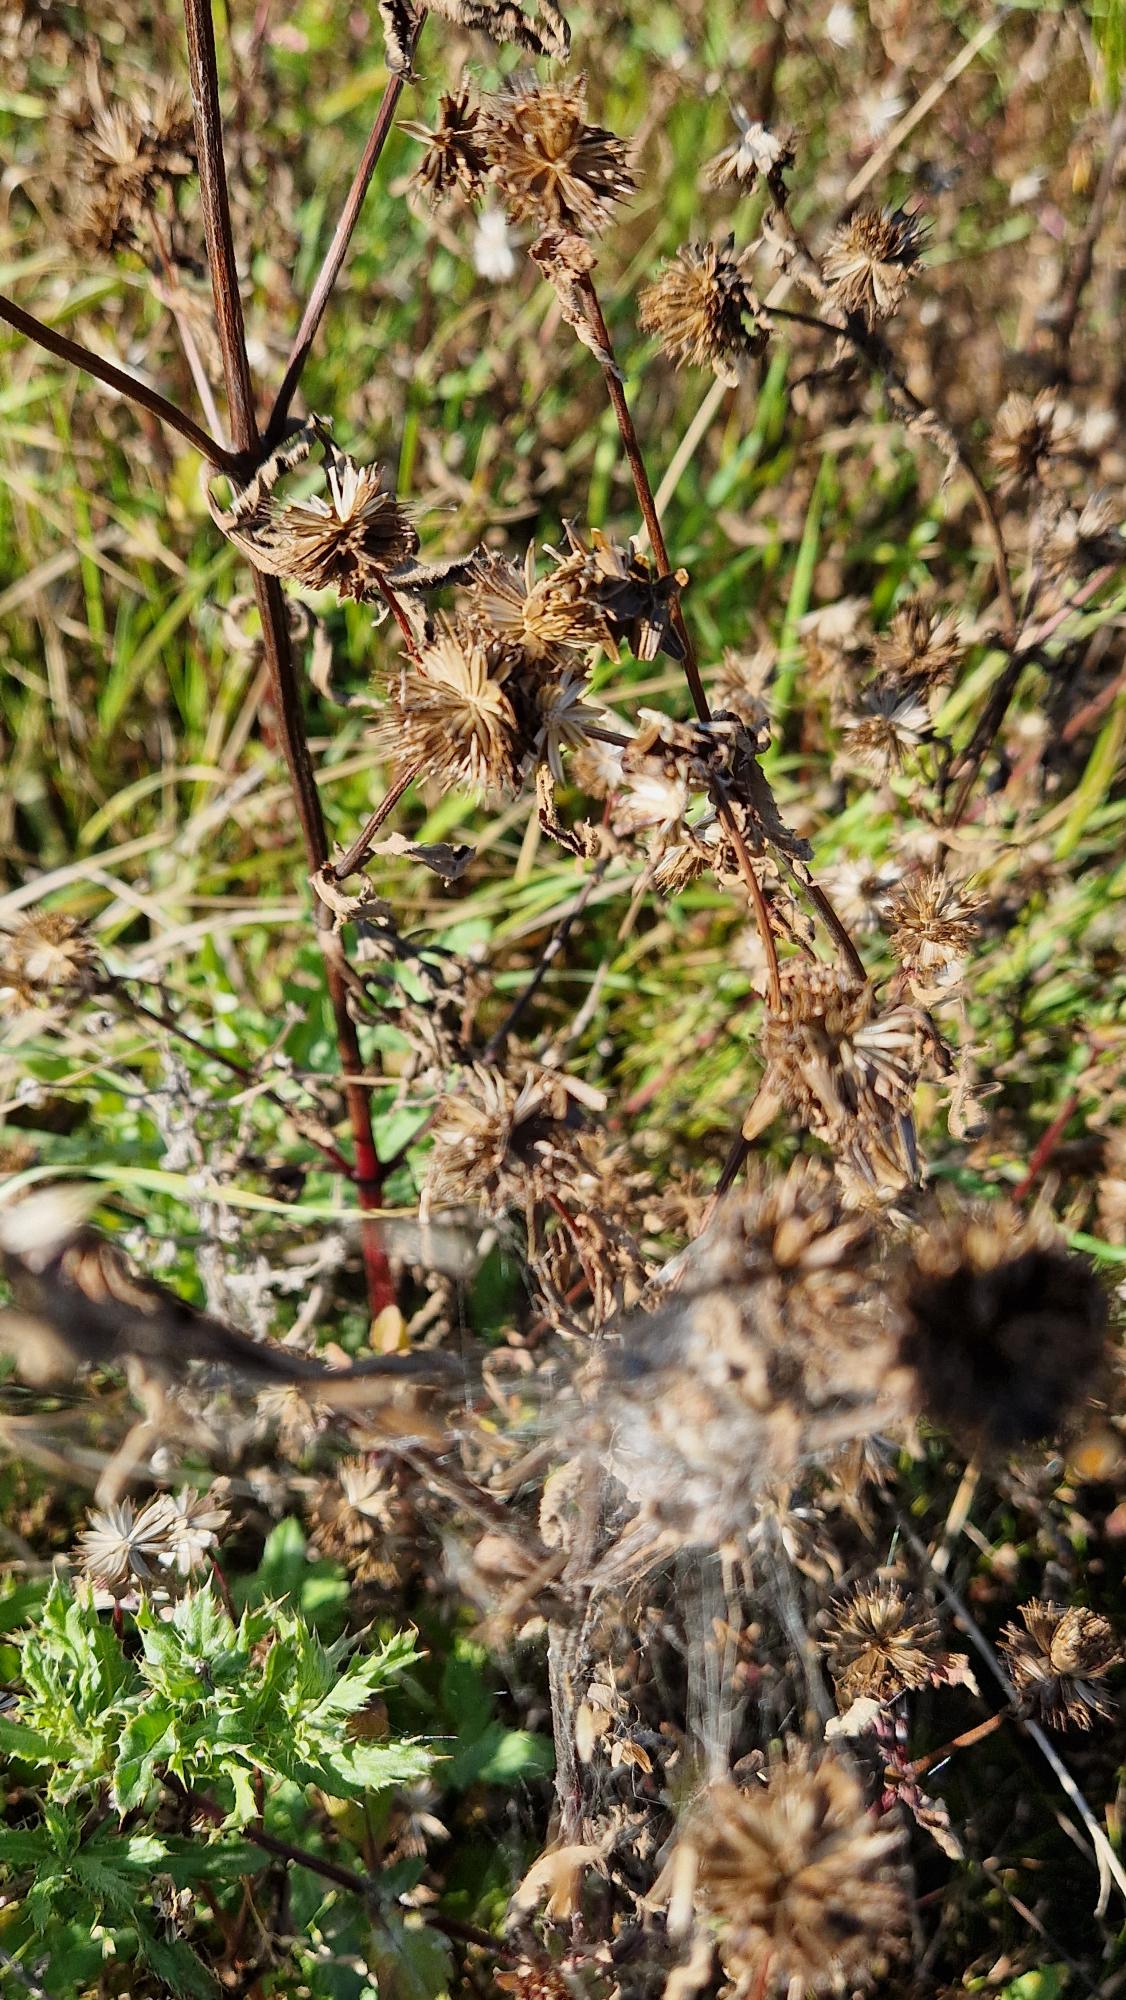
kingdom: Plantae
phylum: Tracheophyta
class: Magnoliopsida
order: Asterales
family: Asteraceae
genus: Bidens
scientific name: Bidens tripartita
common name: Fliget brøndsel
